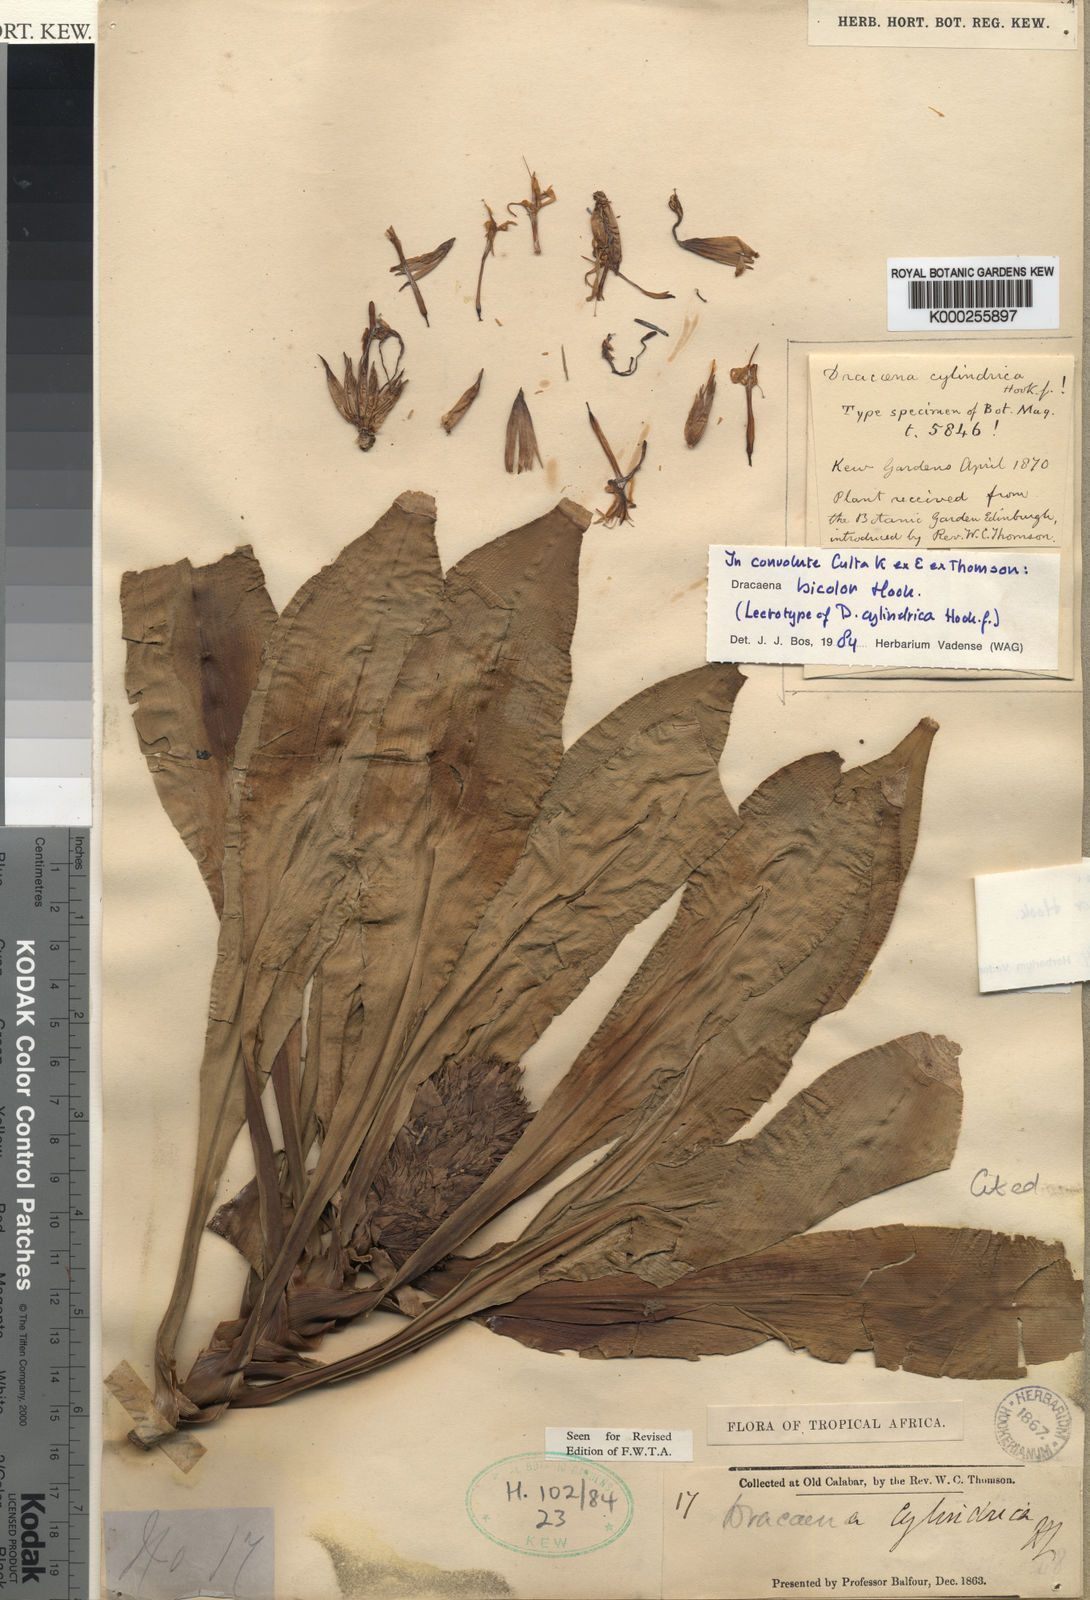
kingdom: Plantae
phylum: Tracheophyta
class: Liliopsida
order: Asparagales
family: Asparagaceae
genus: Dracaena
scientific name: Dracaena bicolor
